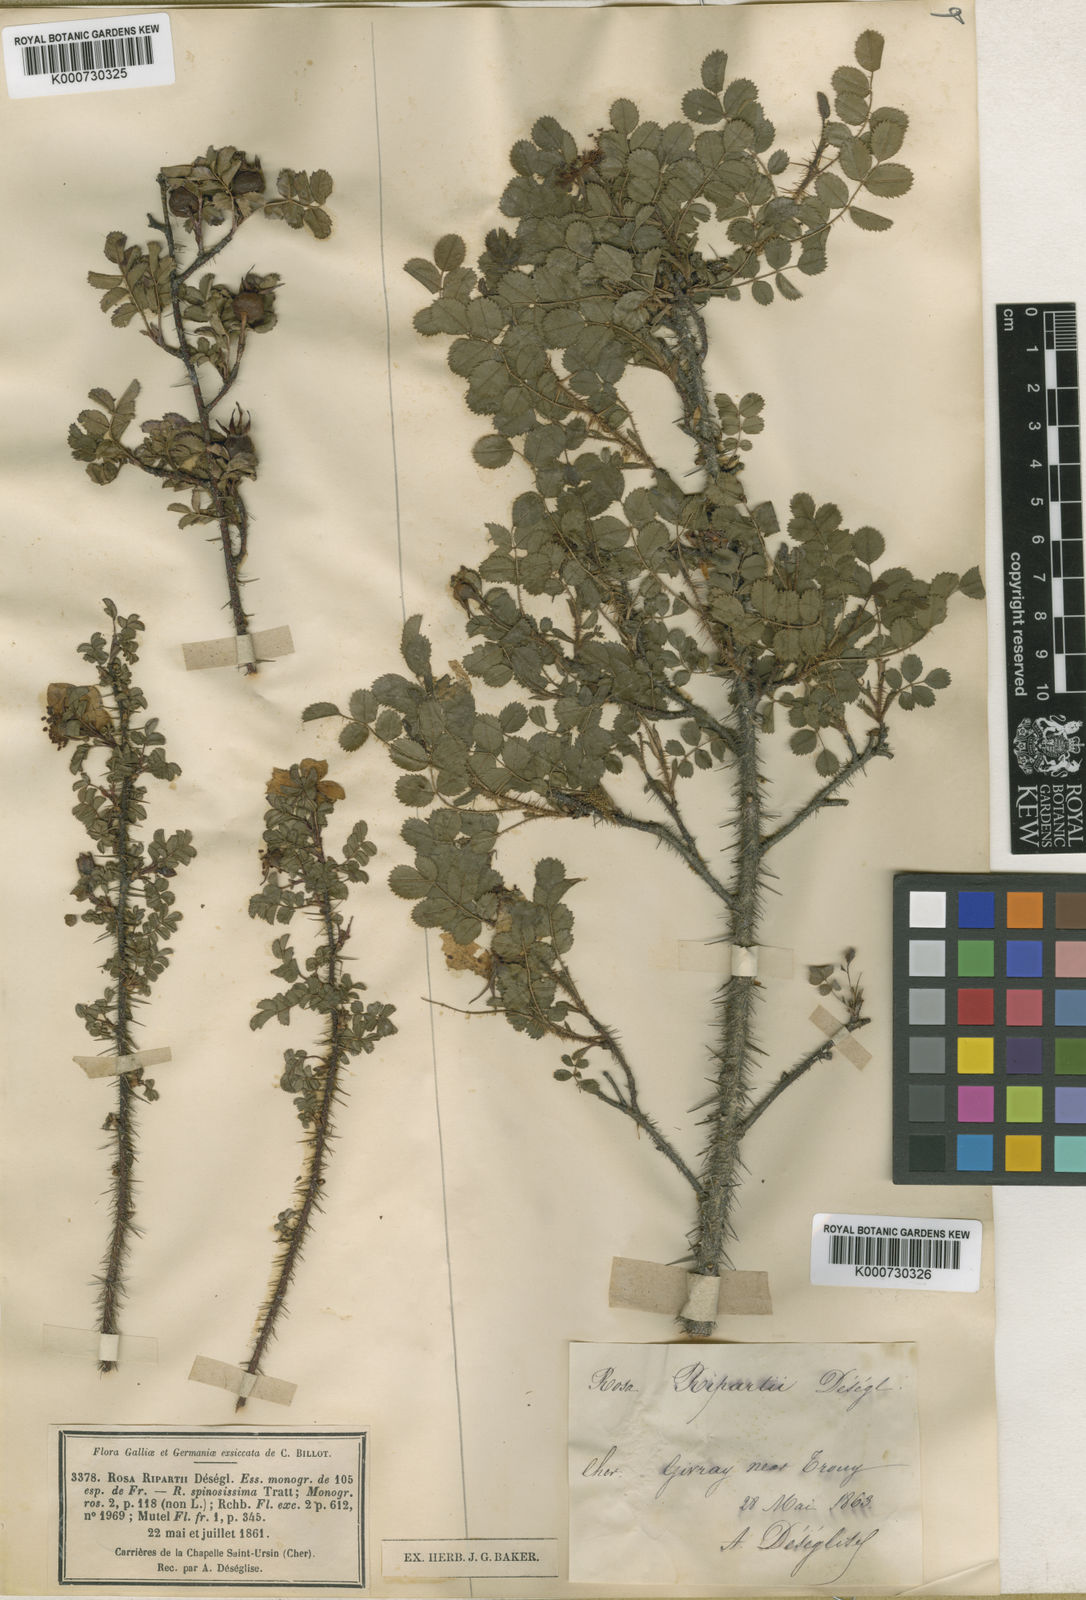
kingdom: Plantae
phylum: Tracheophyta
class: Magnoliopsida
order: Rosales
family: Rosaceae
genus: Rosa
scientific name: Rosa spinosissima
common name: Burnet rose
